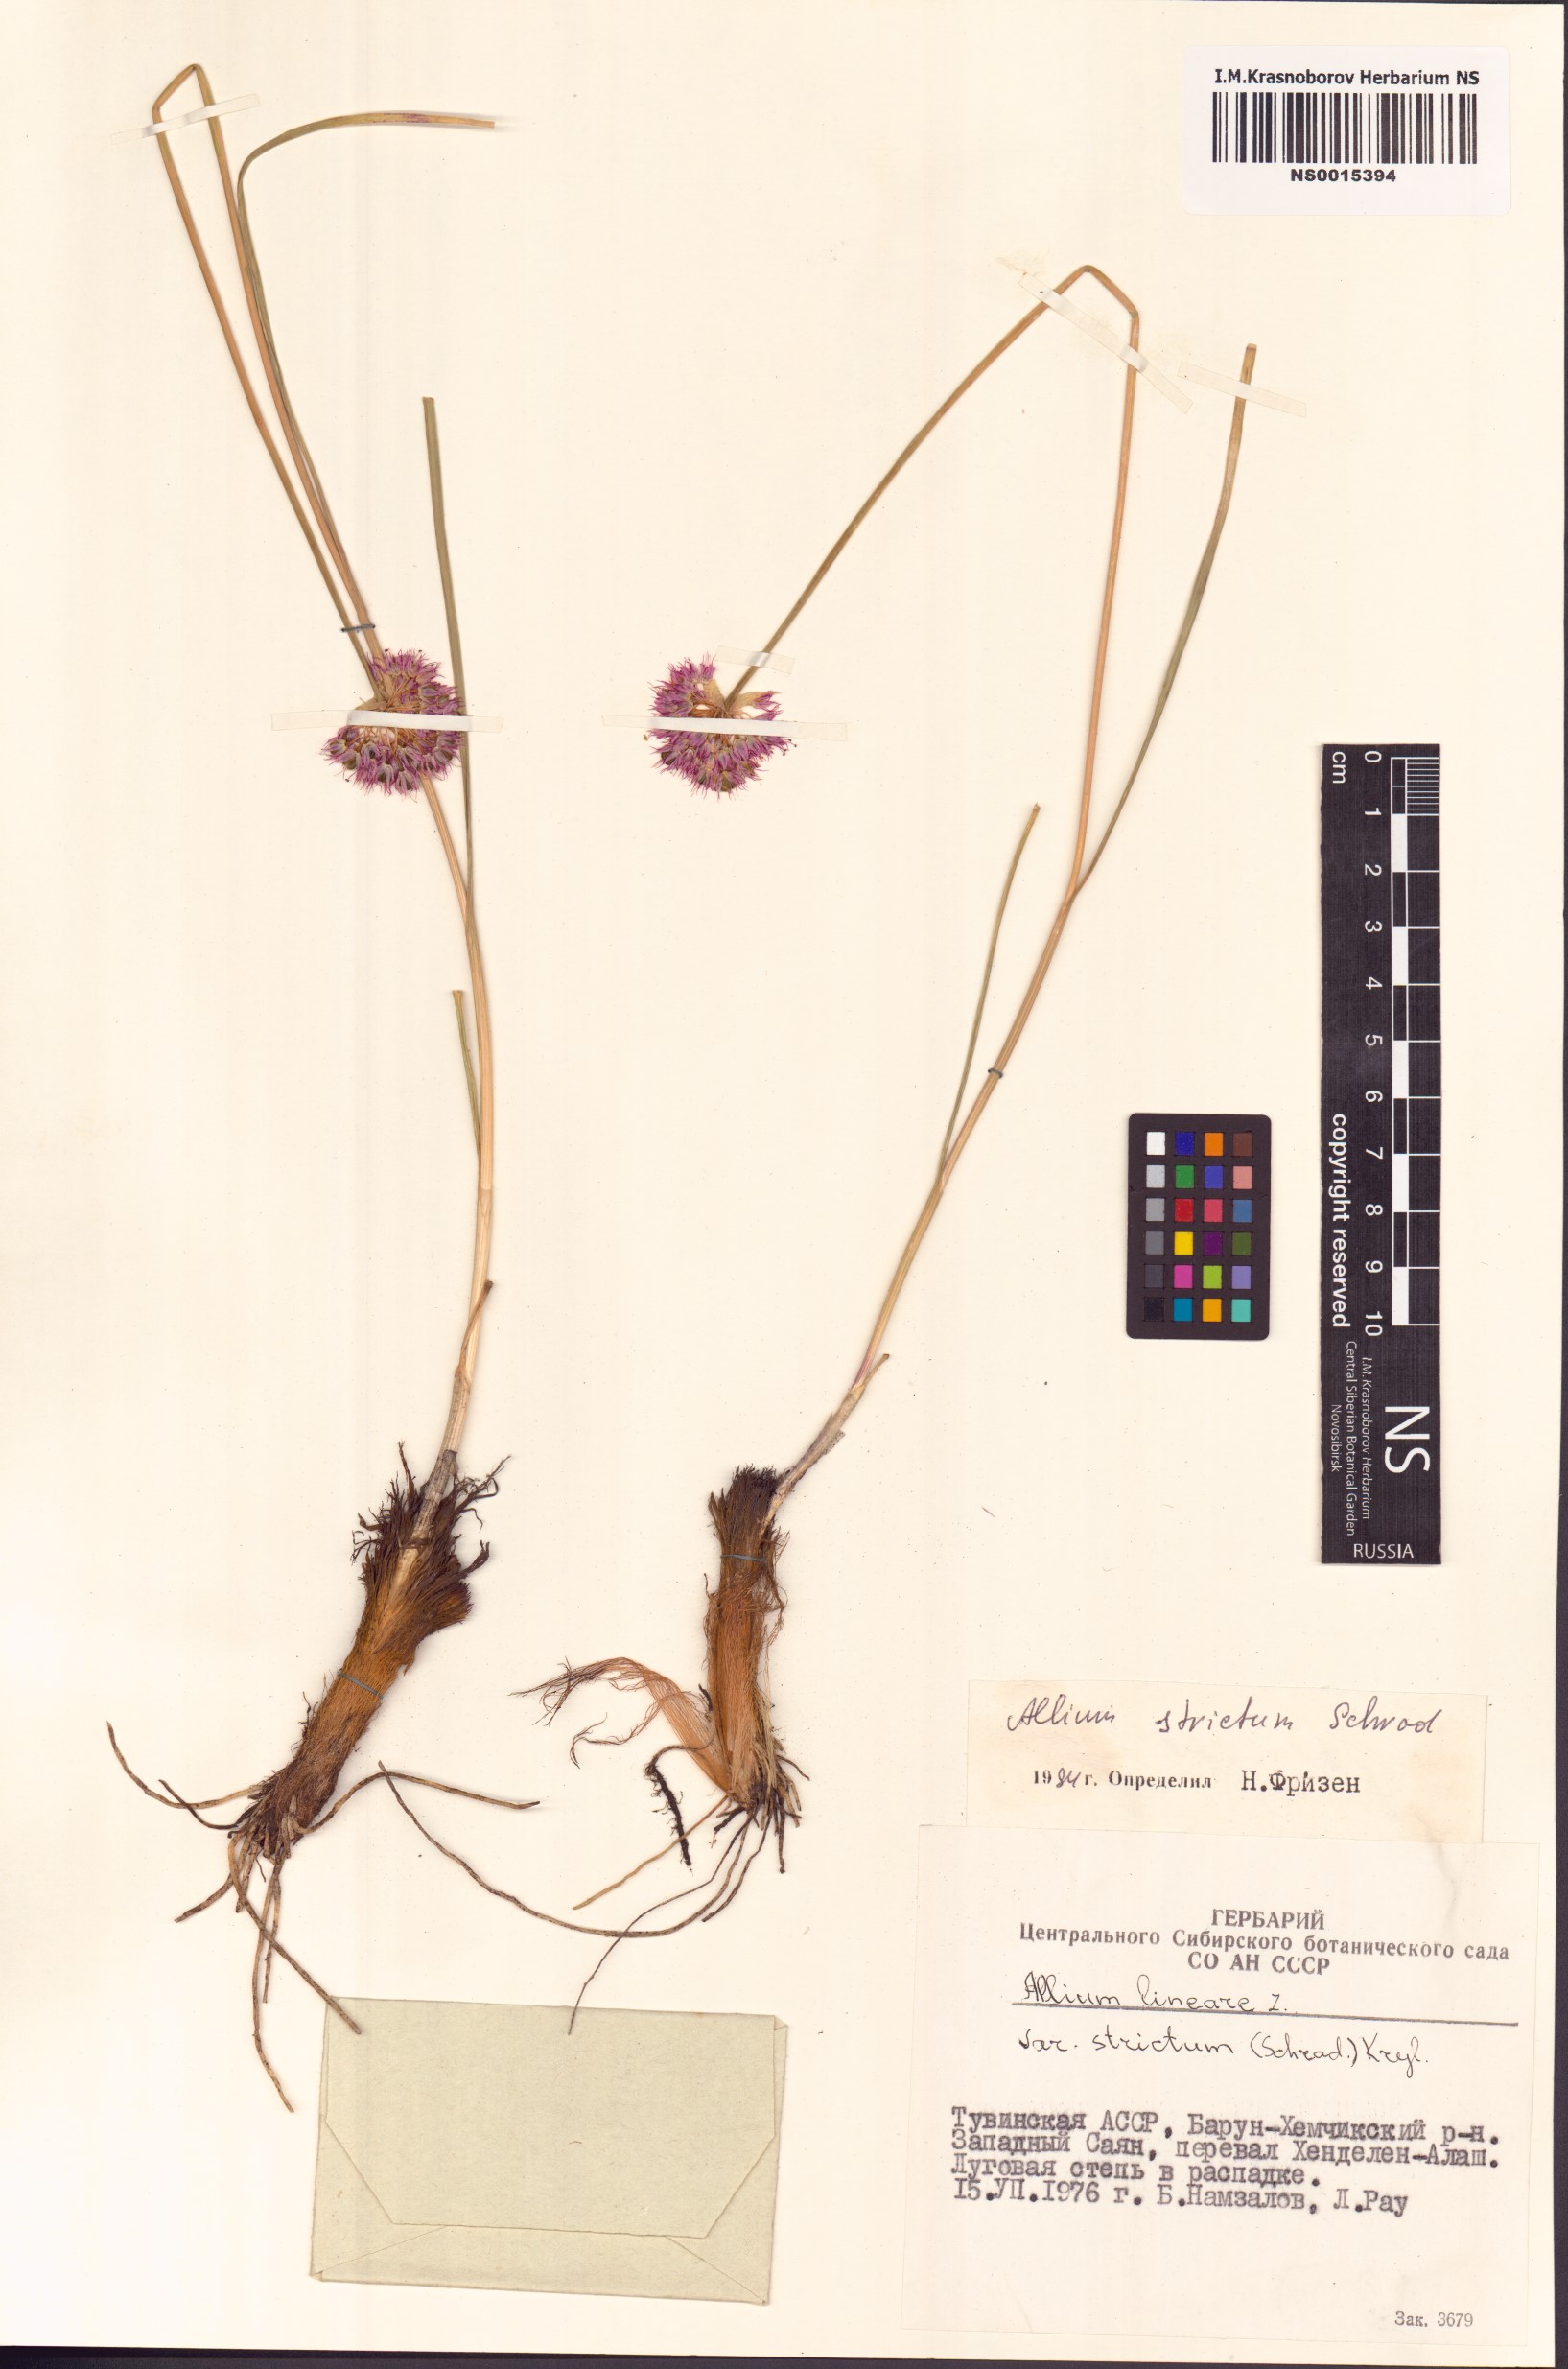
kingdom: Plantae
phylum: Tracheophyta
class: Liliopsida
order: Asparagales
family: Amaryllidaceae
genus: Allium
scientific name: Allium strictum
